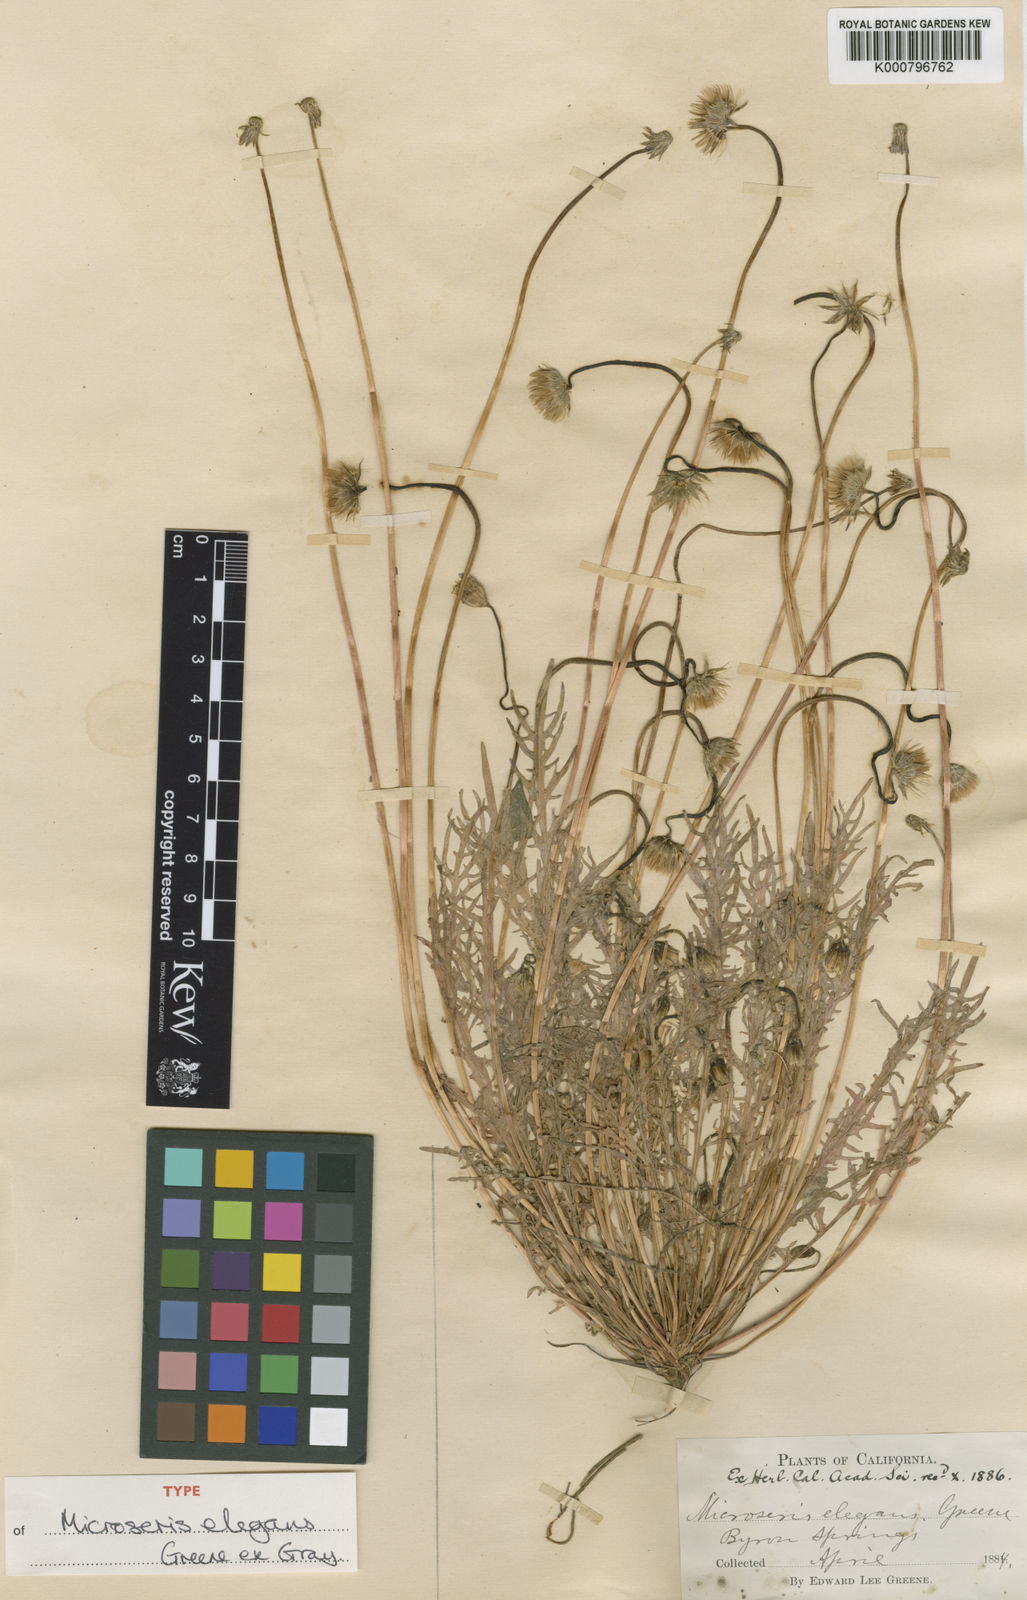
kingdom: Plantae
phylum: Tracheophyta
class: Magnoliopsida
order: Asterales
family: Asteraceae
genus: Microseris
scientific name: Microseris elegans
